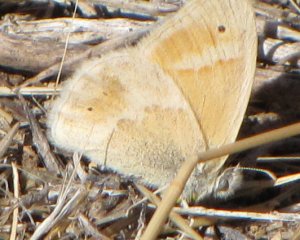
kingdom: Animalia
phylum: Arthropoda
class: Insecta
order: Lepidoptera
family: Nymphalidae
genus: Coenonympha
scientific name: Coenonympha tullia
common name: Large Heath
